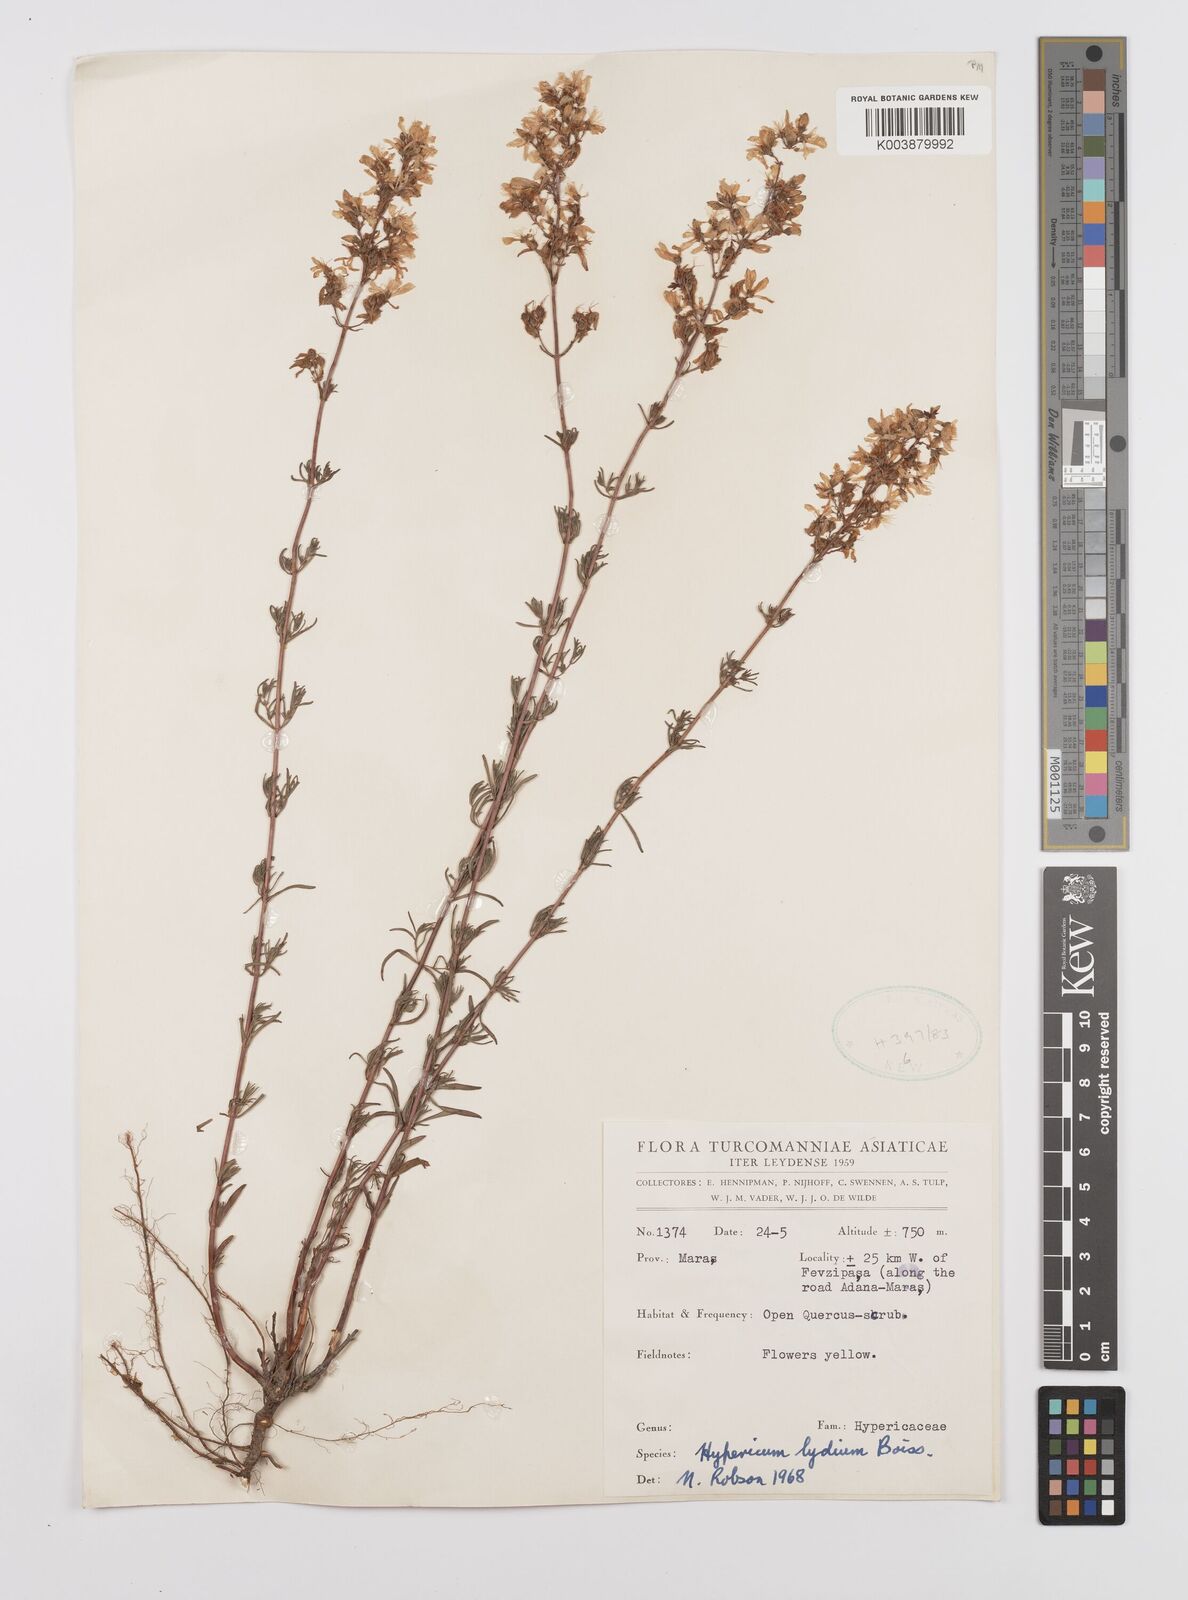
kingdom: Plantae
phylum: Tracheophyta
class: Magnoliopsida
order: Malpighiales
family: Hypericaceae
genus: Hypericum
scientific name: Hypericum lydium
